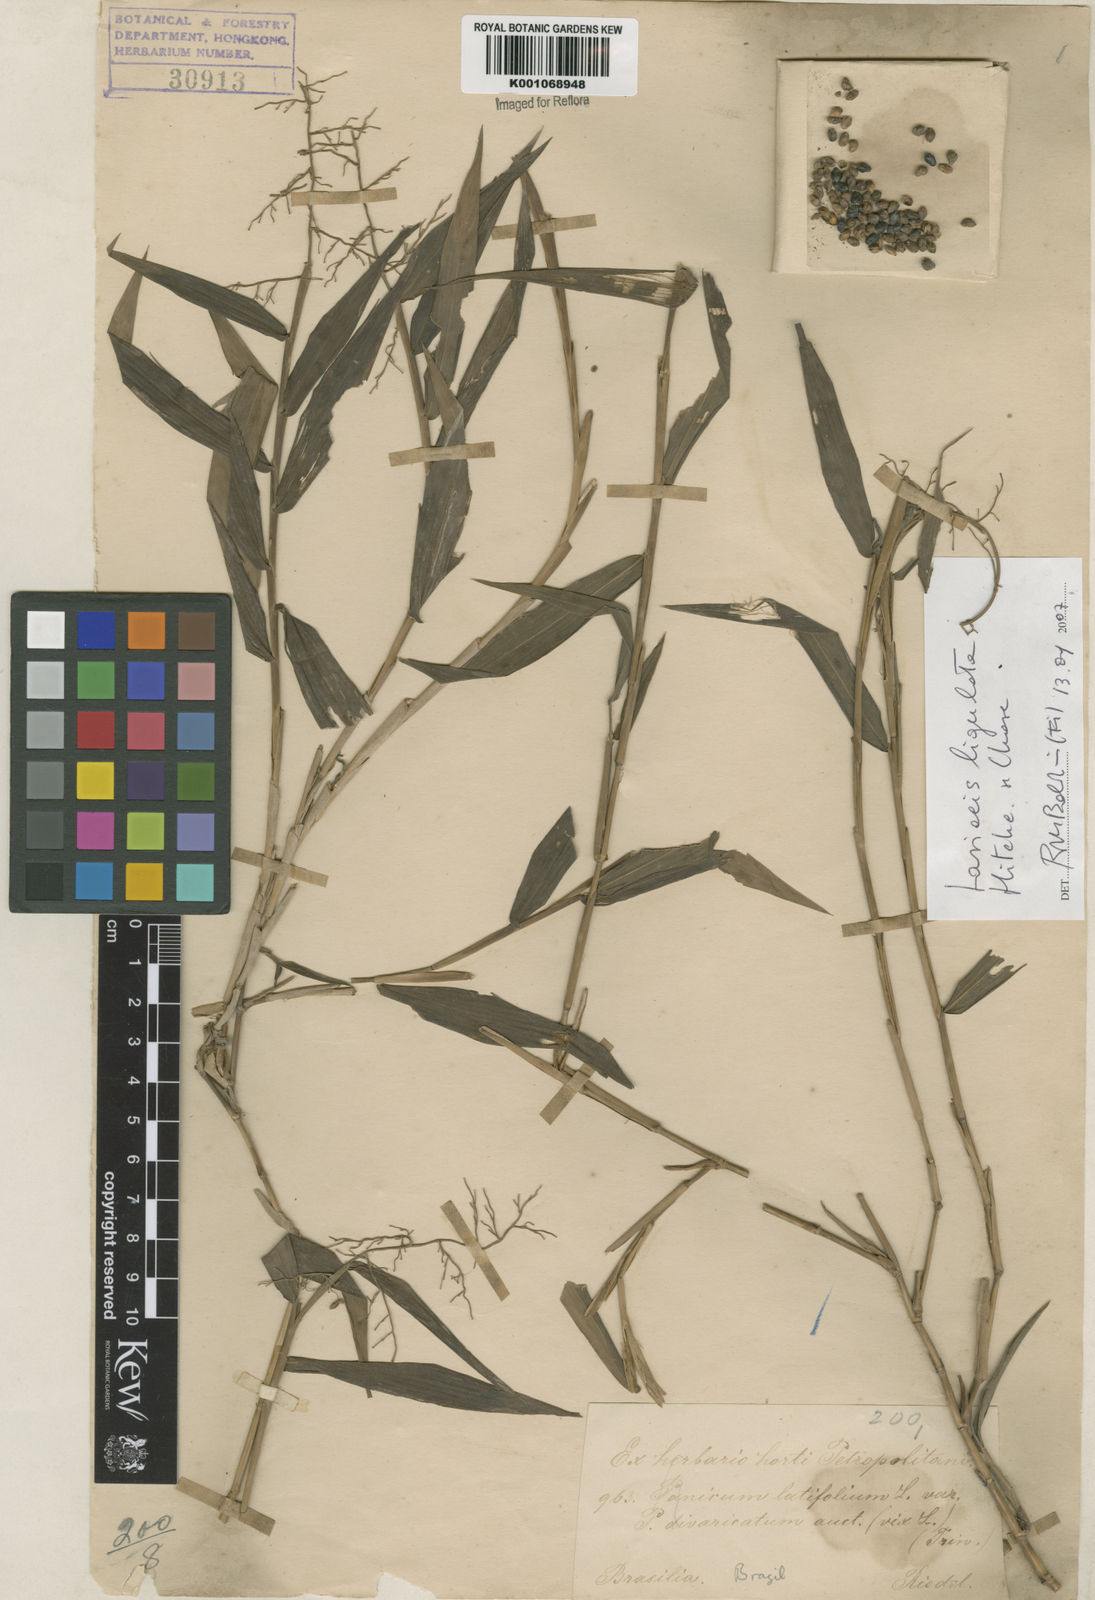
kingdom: Plantae
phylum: Tracheophyta
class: Liliopsida
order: Poales
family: Poaceae
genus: Lasiacis
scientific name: Lasiacis ligulata
